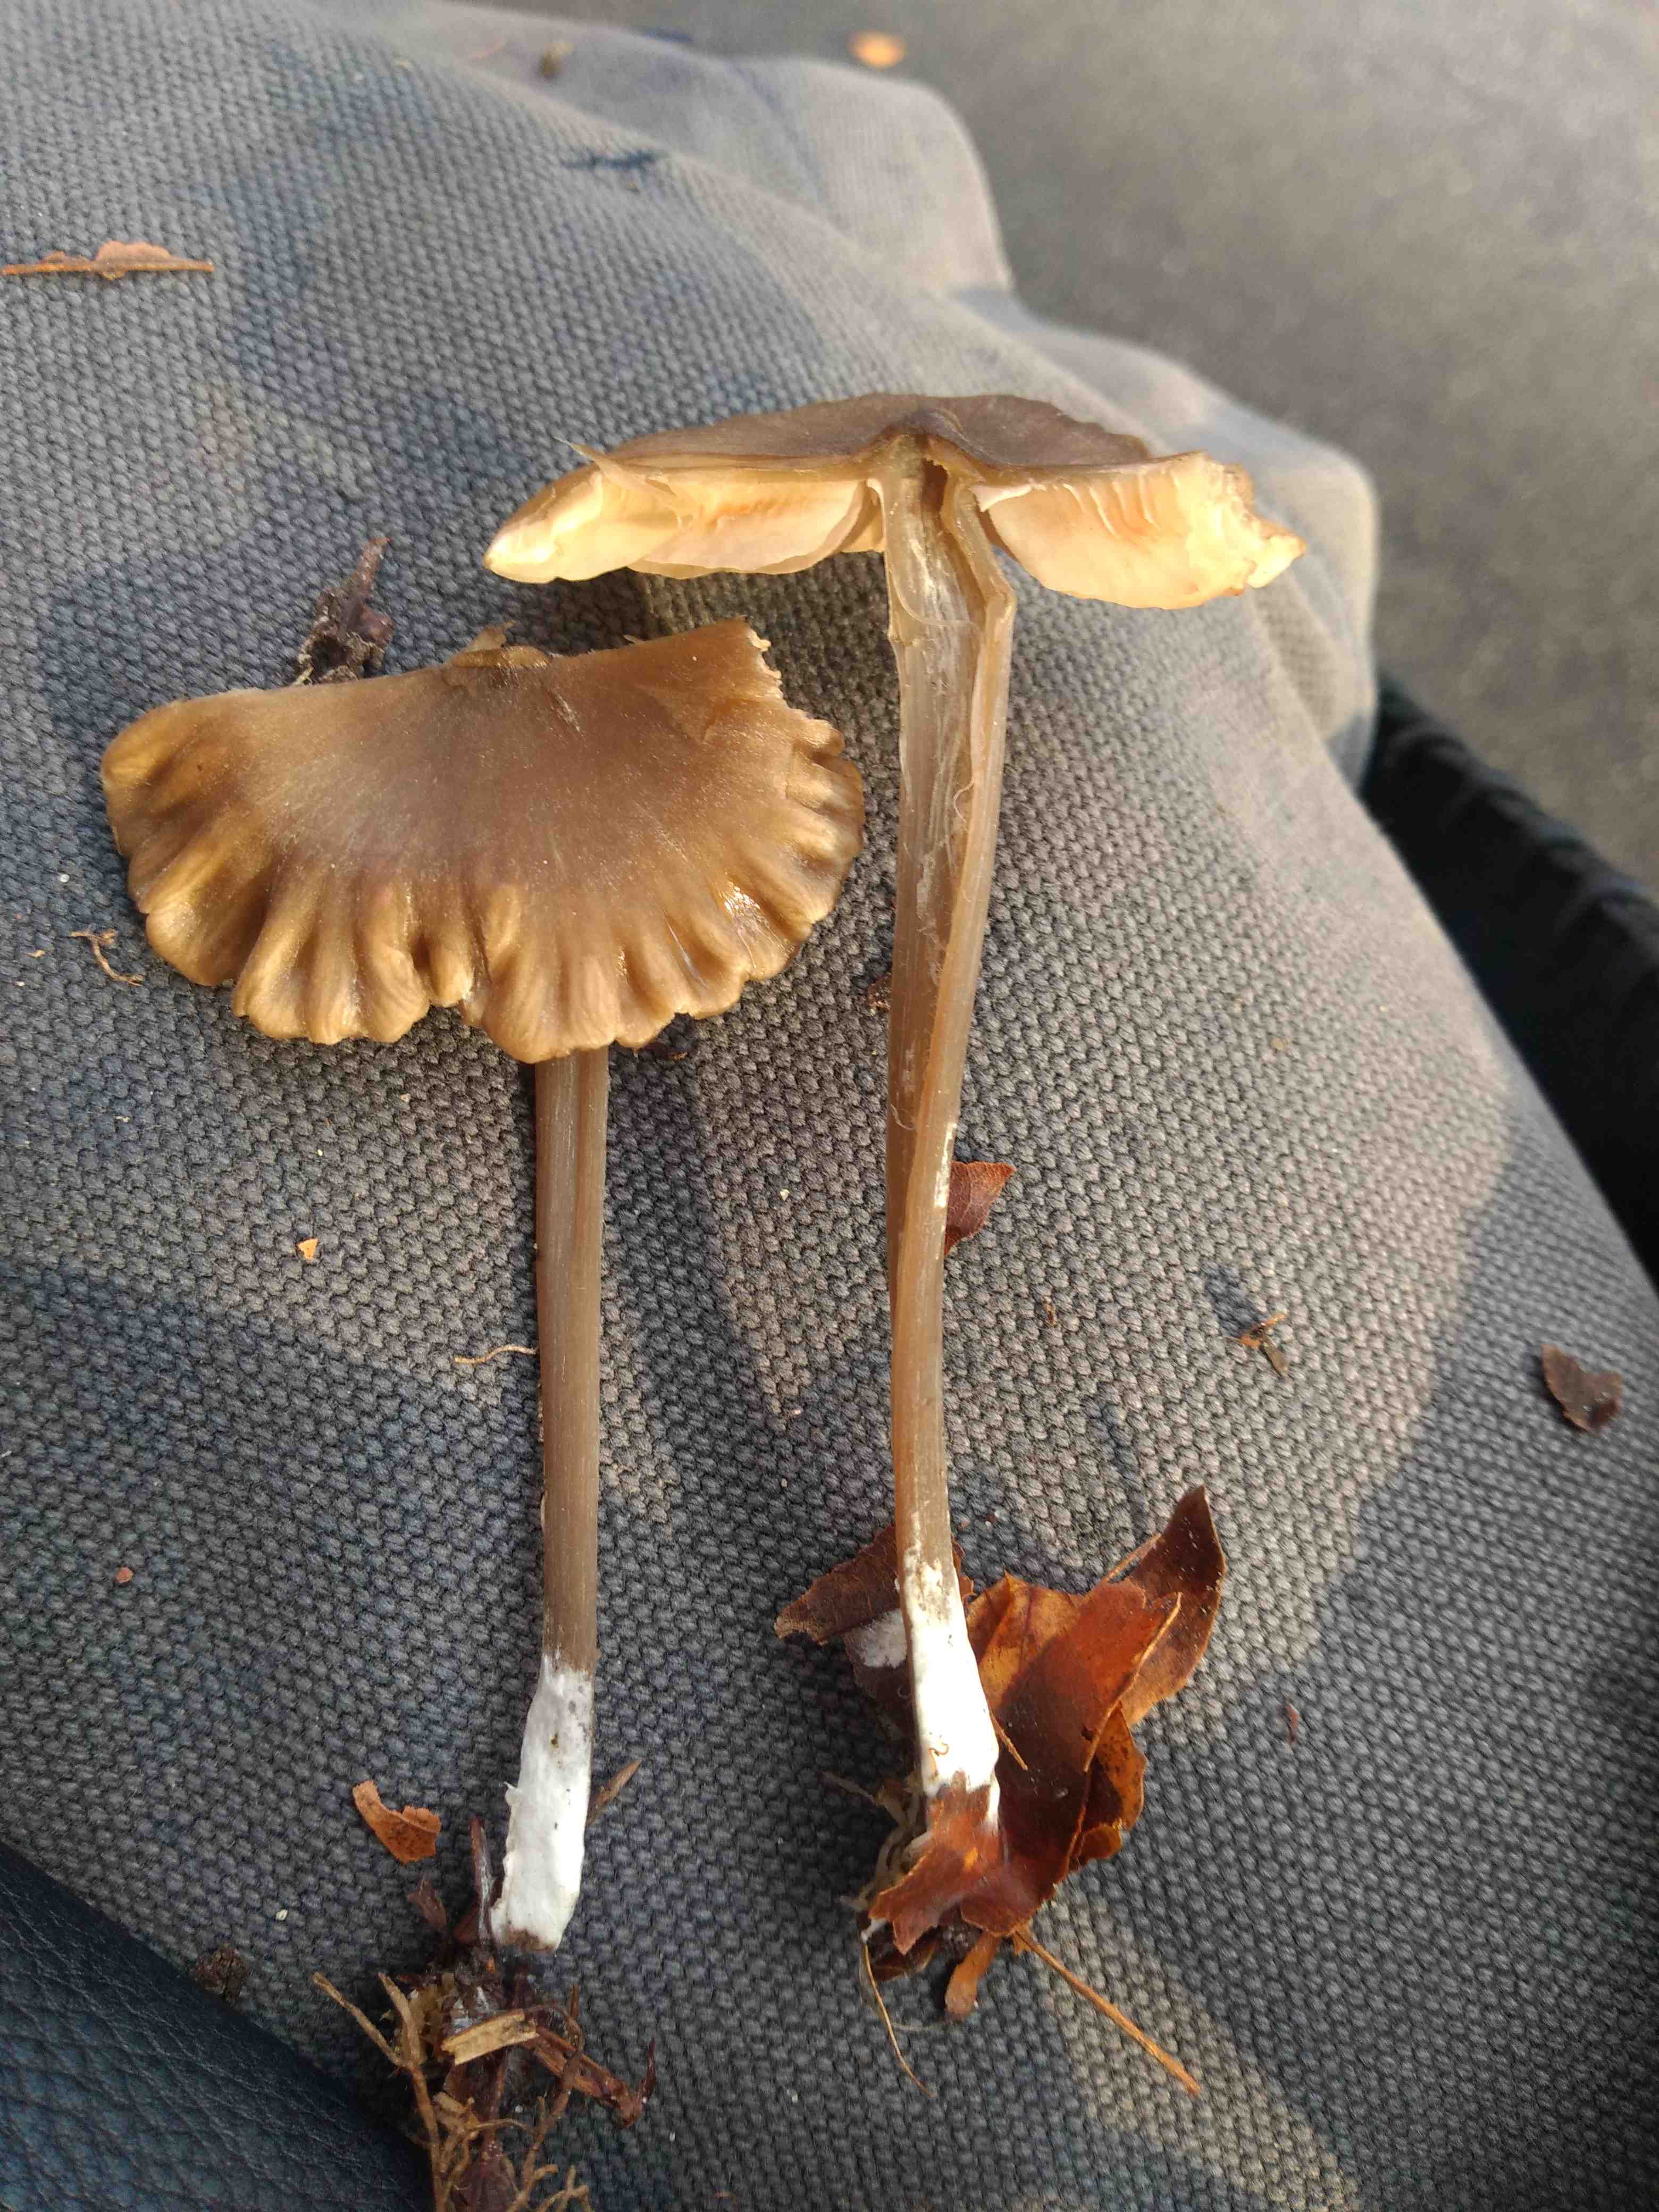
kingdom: Fungi
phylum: Basidiomycota
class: Agaricomycetes
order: Agaricales
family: Entolomataceae
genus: Entoloma
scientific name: Entoloma
